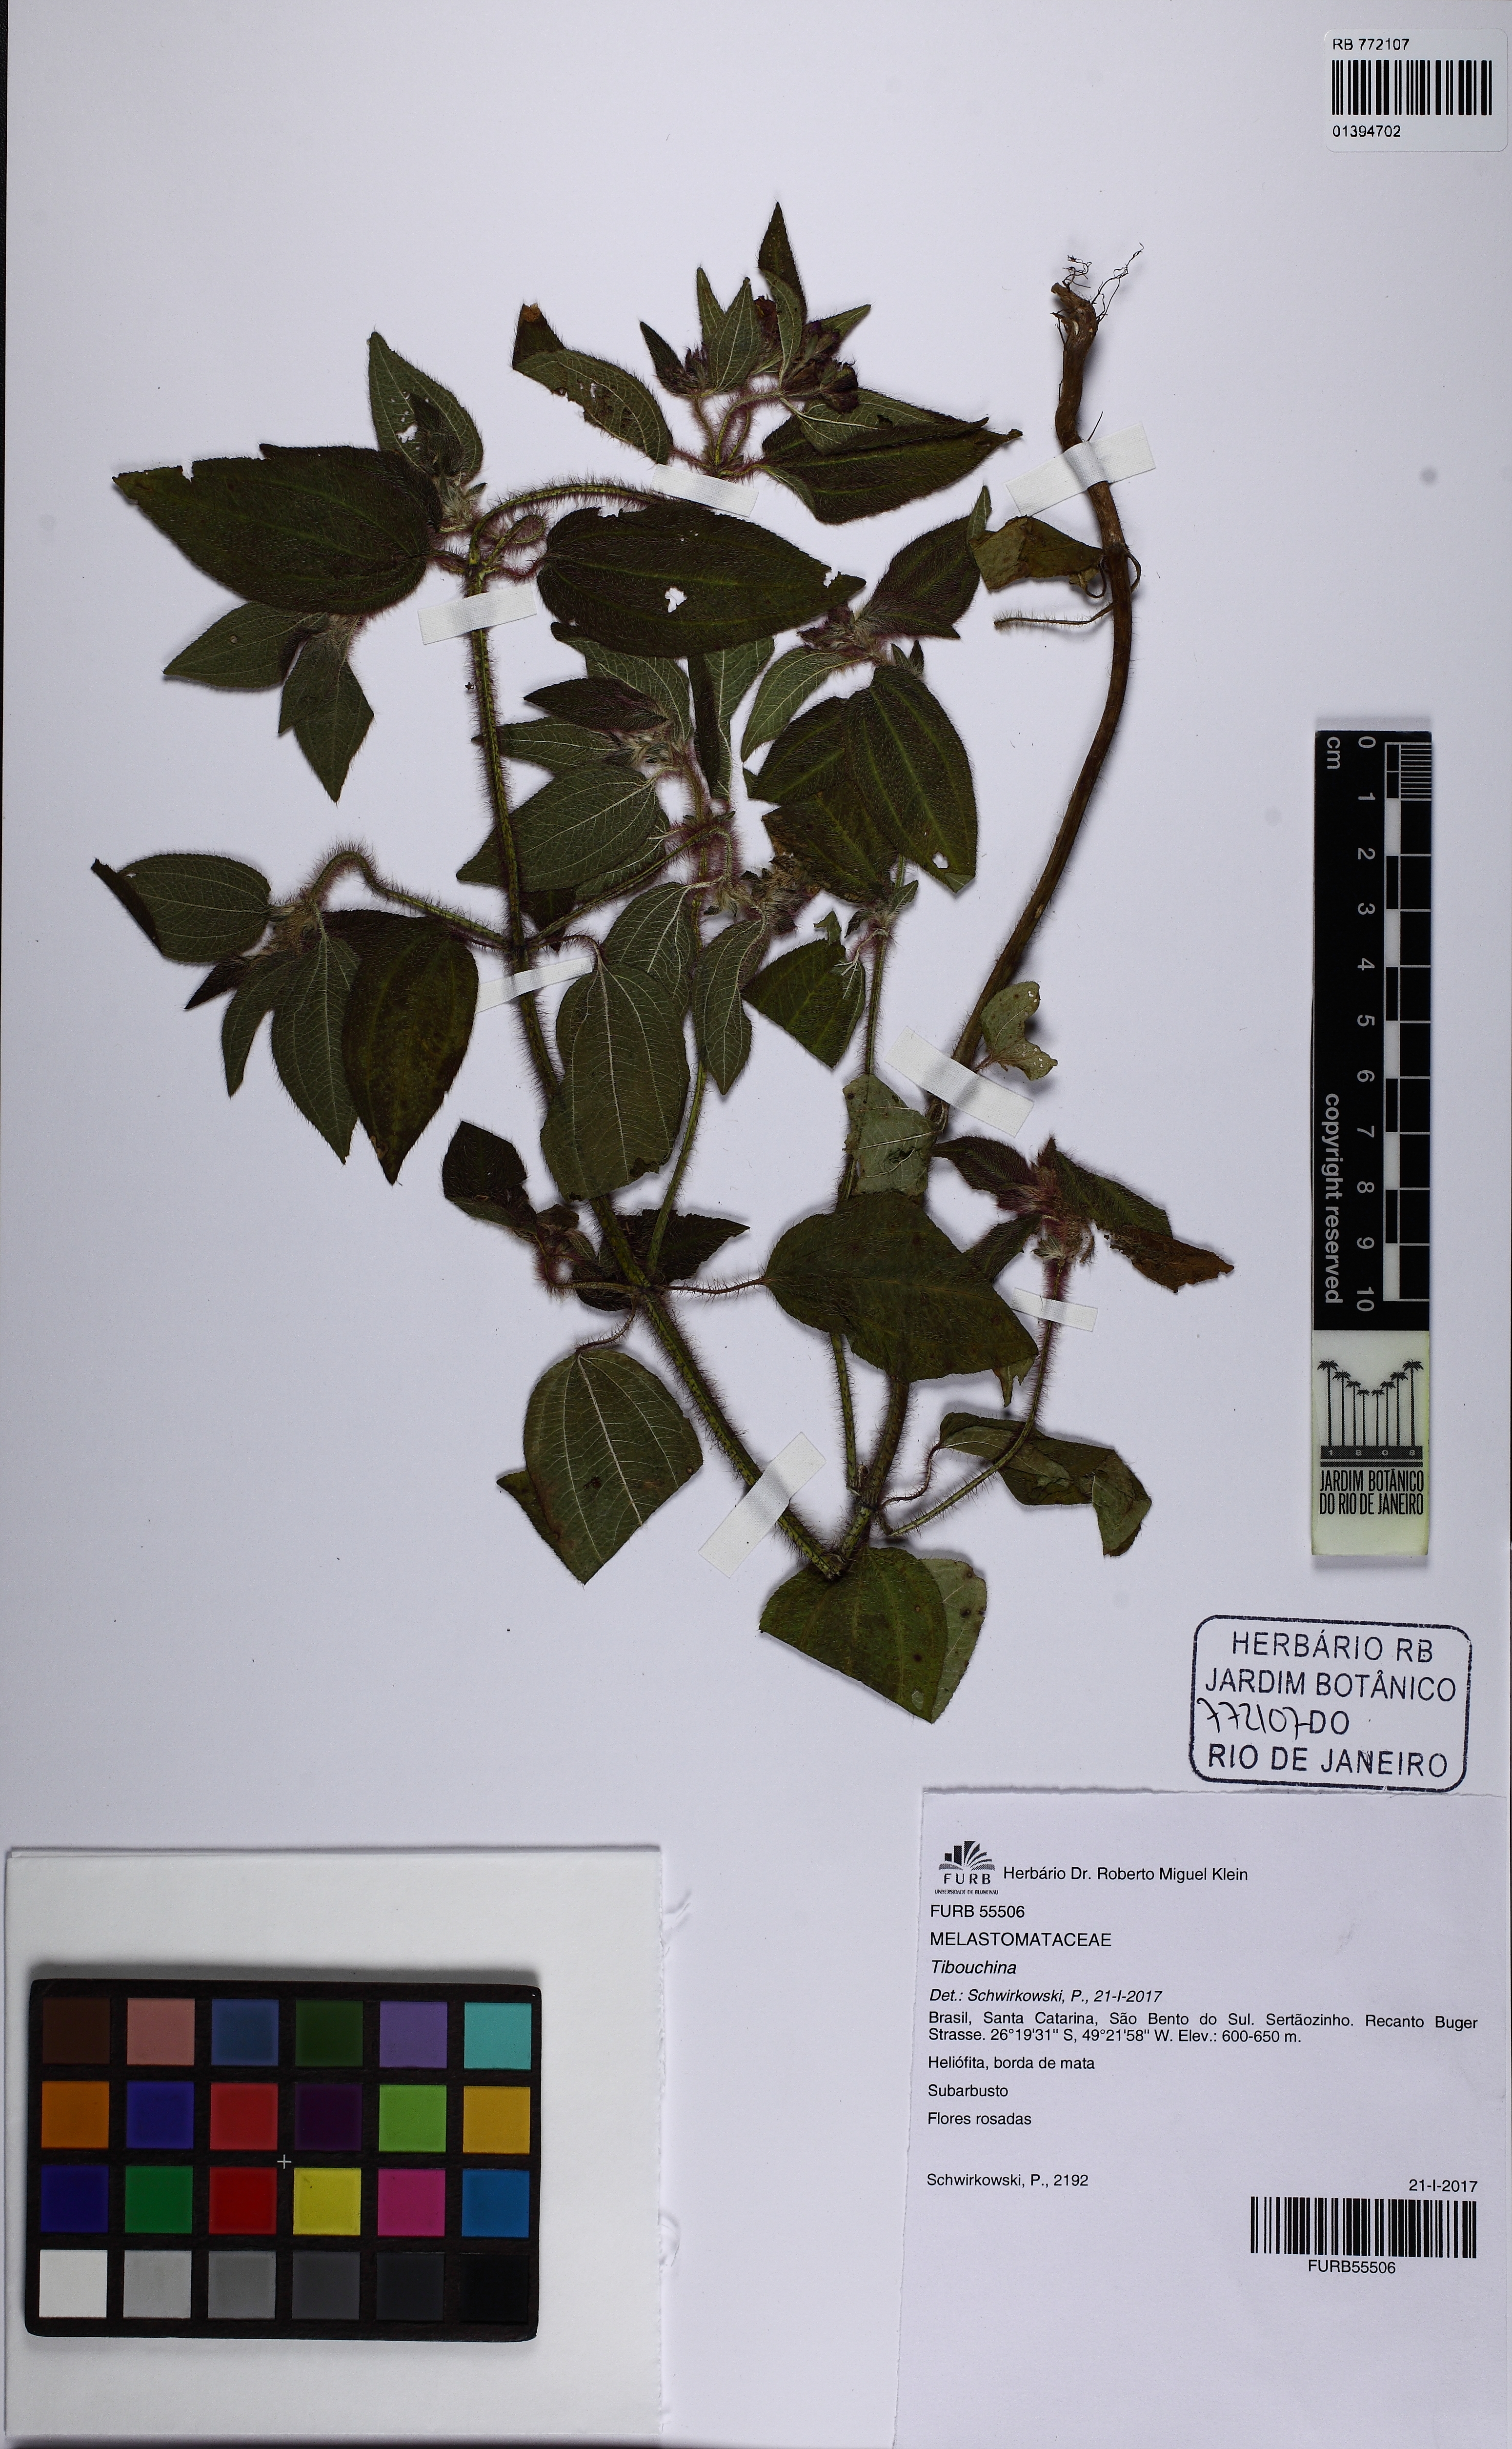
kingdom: Plantae
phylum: Tracheophyta
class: Magnoliopsida
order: Myrtales
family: Melastomataceae
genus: Tibouchina
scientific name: Tibouchina
